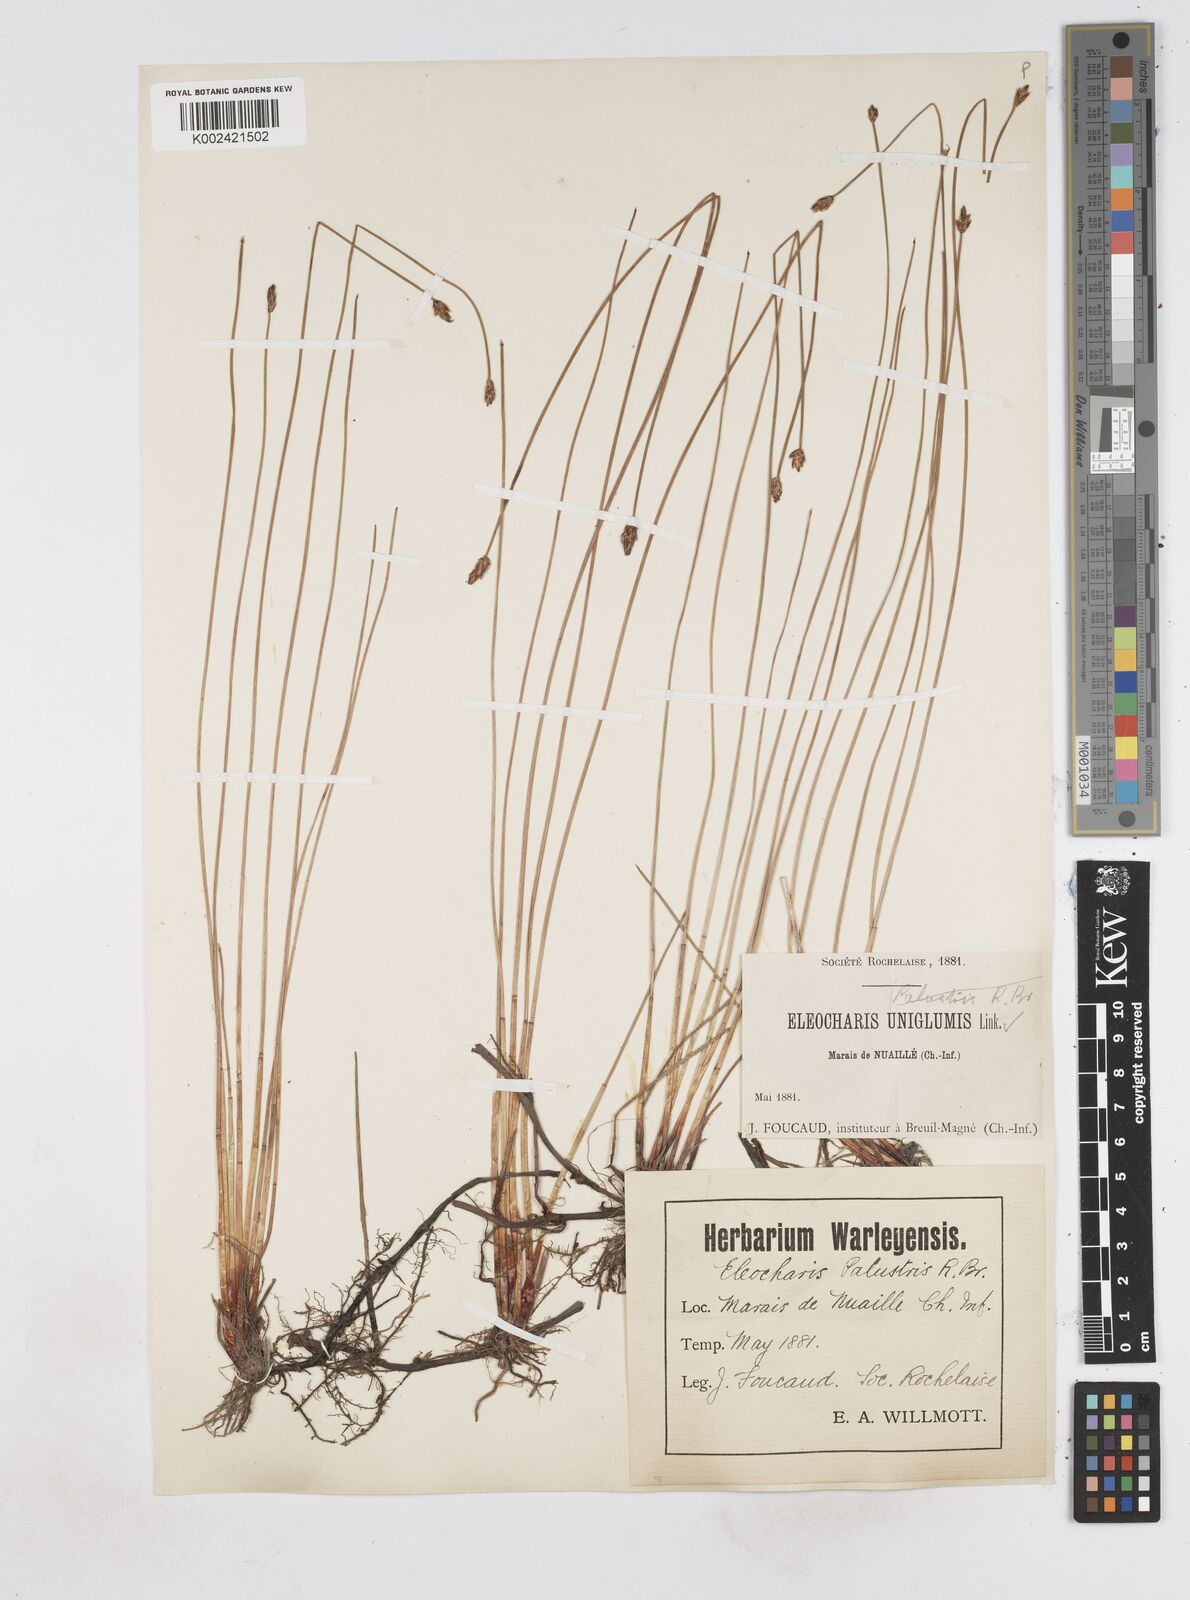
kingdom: Plantae
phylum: Tracheophyta
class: Liliopsida
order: Poales
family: Cyperaceae
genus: Eleocharis
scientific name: Eleocharis uniglumis
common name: Slender spike-rush
